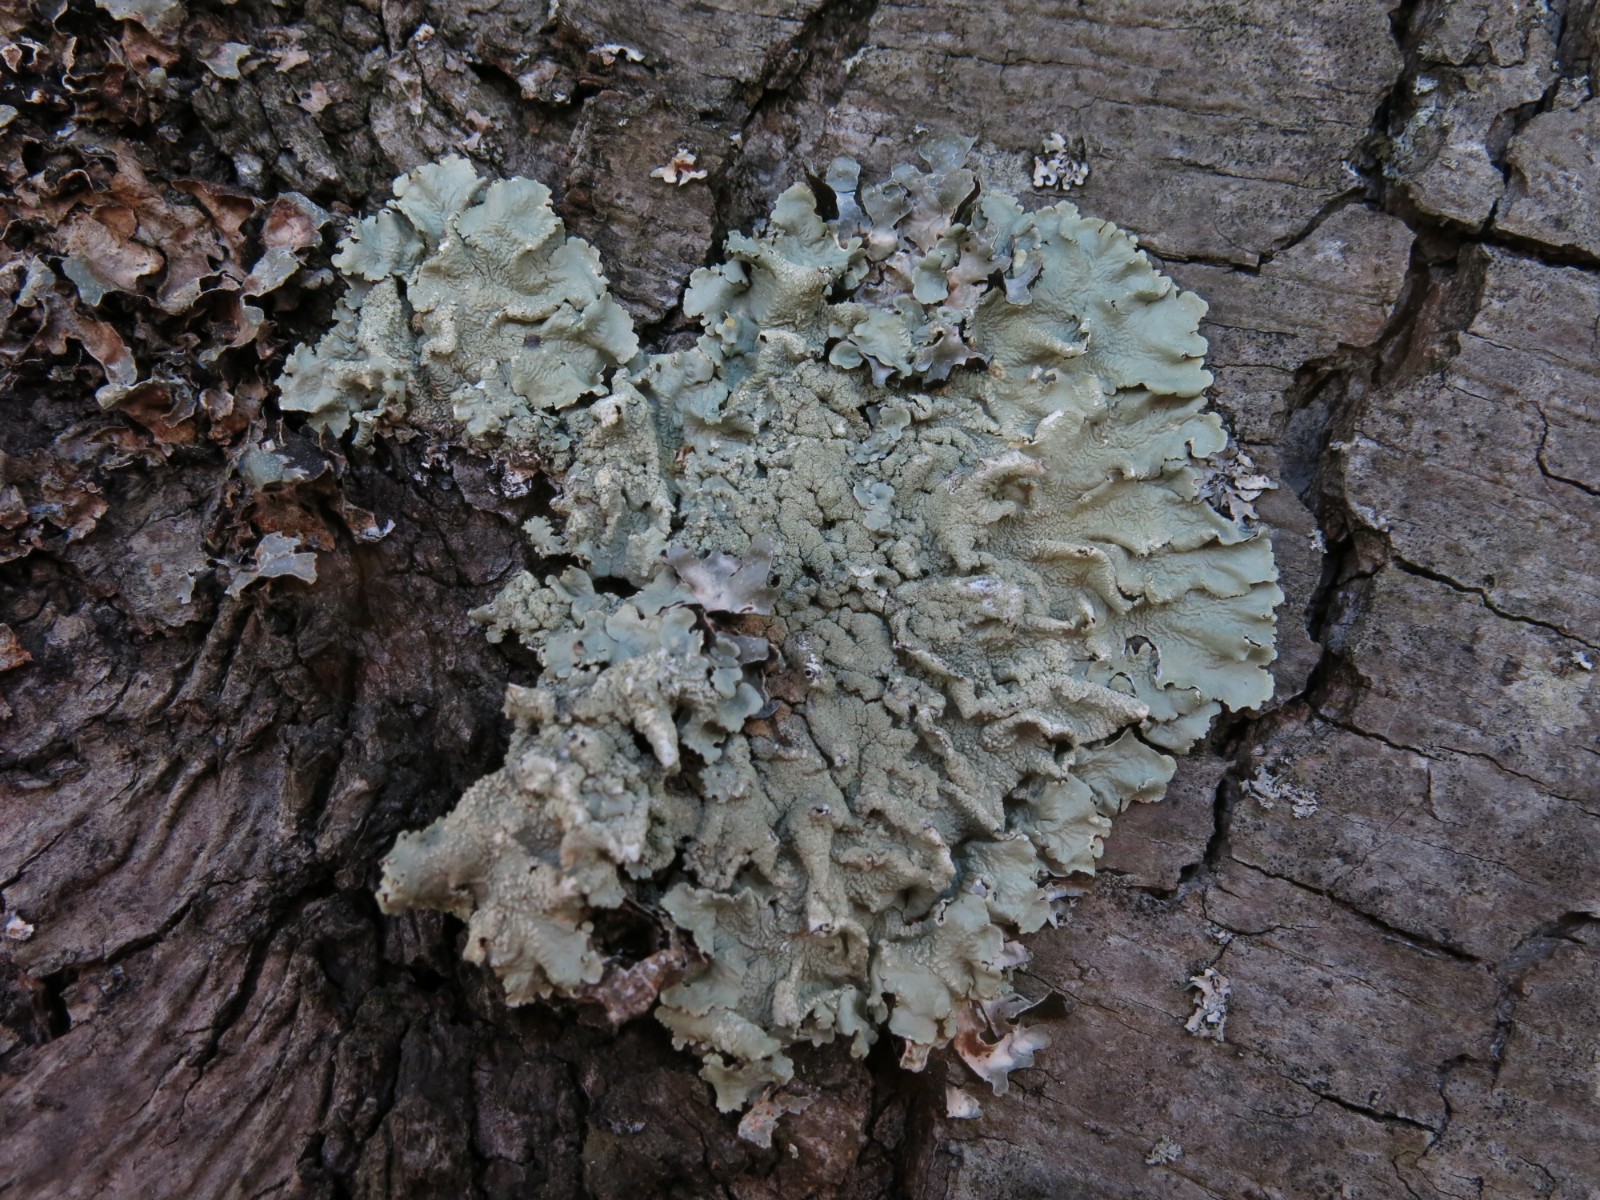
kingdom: Fungi
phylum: Ascomycota
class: Lecanoromycetes
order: Lecanorales
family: Parmeliaceae
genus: Flavoparmelia
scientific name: Flavoparmelia caperata
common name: gulgrøn skållav
